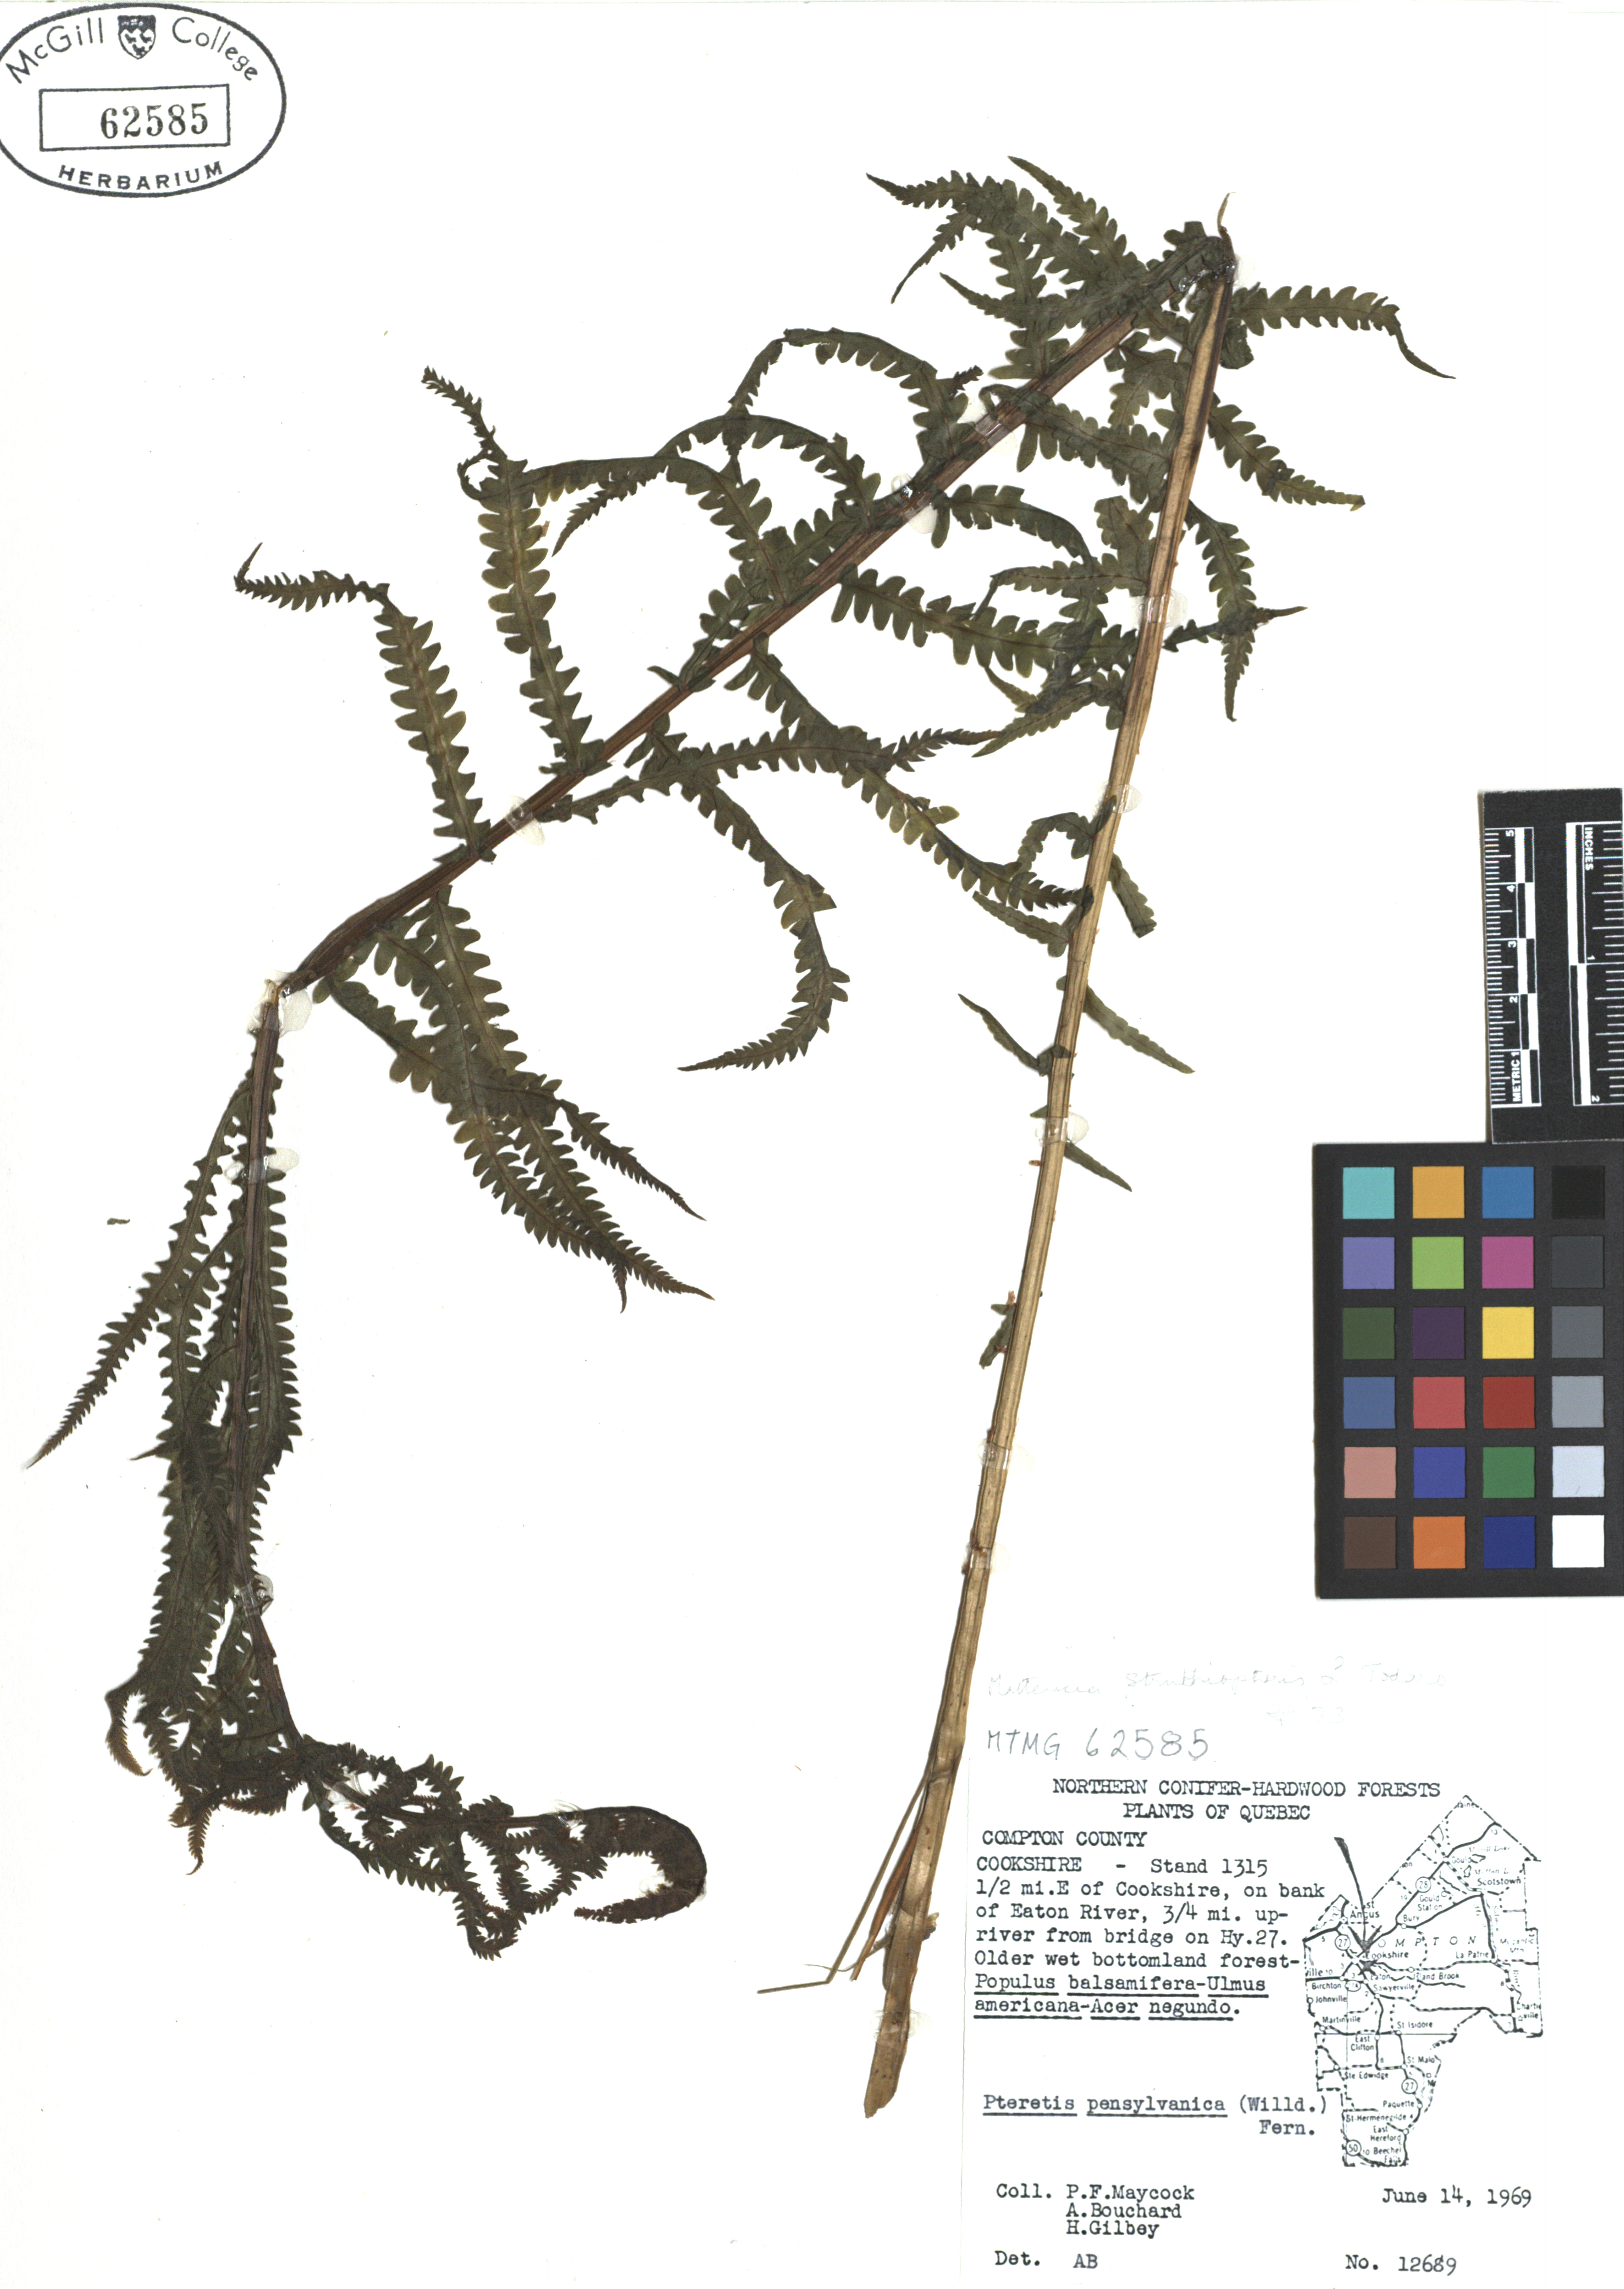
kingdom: Plantae
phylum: Tracheophyta
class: Polypodiopsida
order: Polypodiales
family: Onocleaceae
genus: Matteuccia
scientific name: Matteuccia struthiopteris
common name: Ostrich fern
